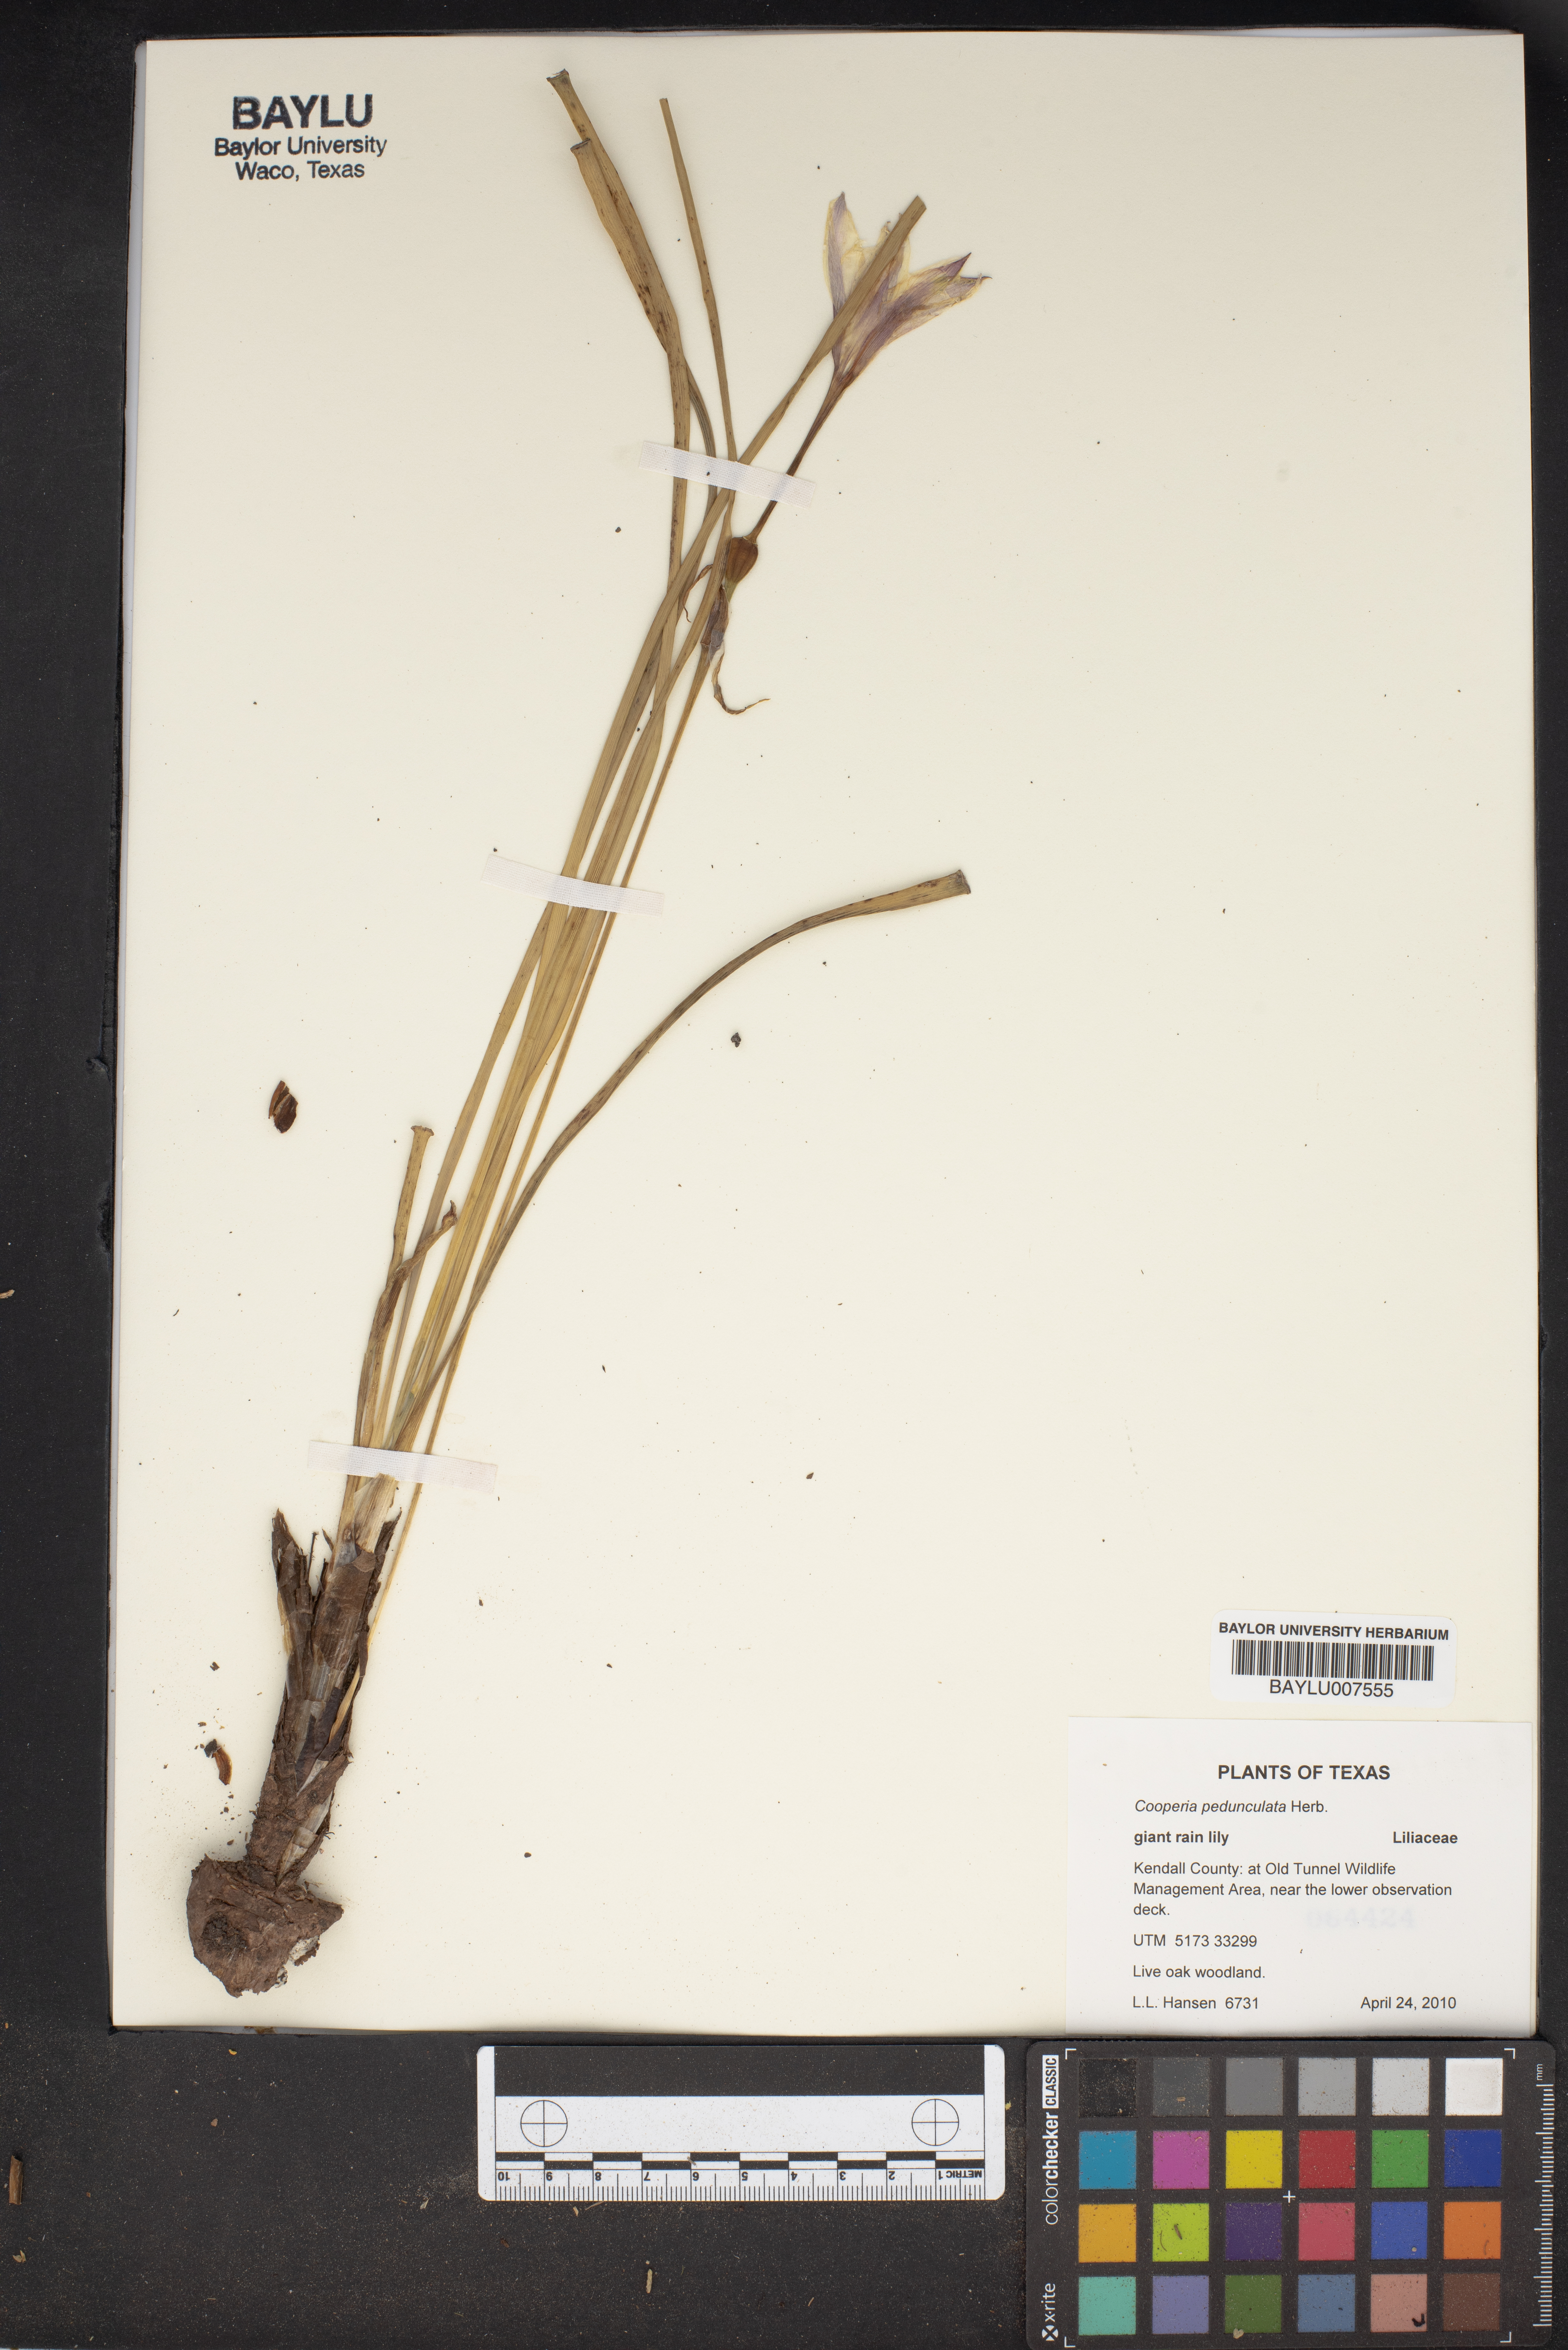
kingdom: Plantae
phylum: Tracheophyta
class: Liliopsida
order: Asparagales
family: Amaryllidaceae
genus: Zephyranthes
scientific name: Zephyranthes drummondii
